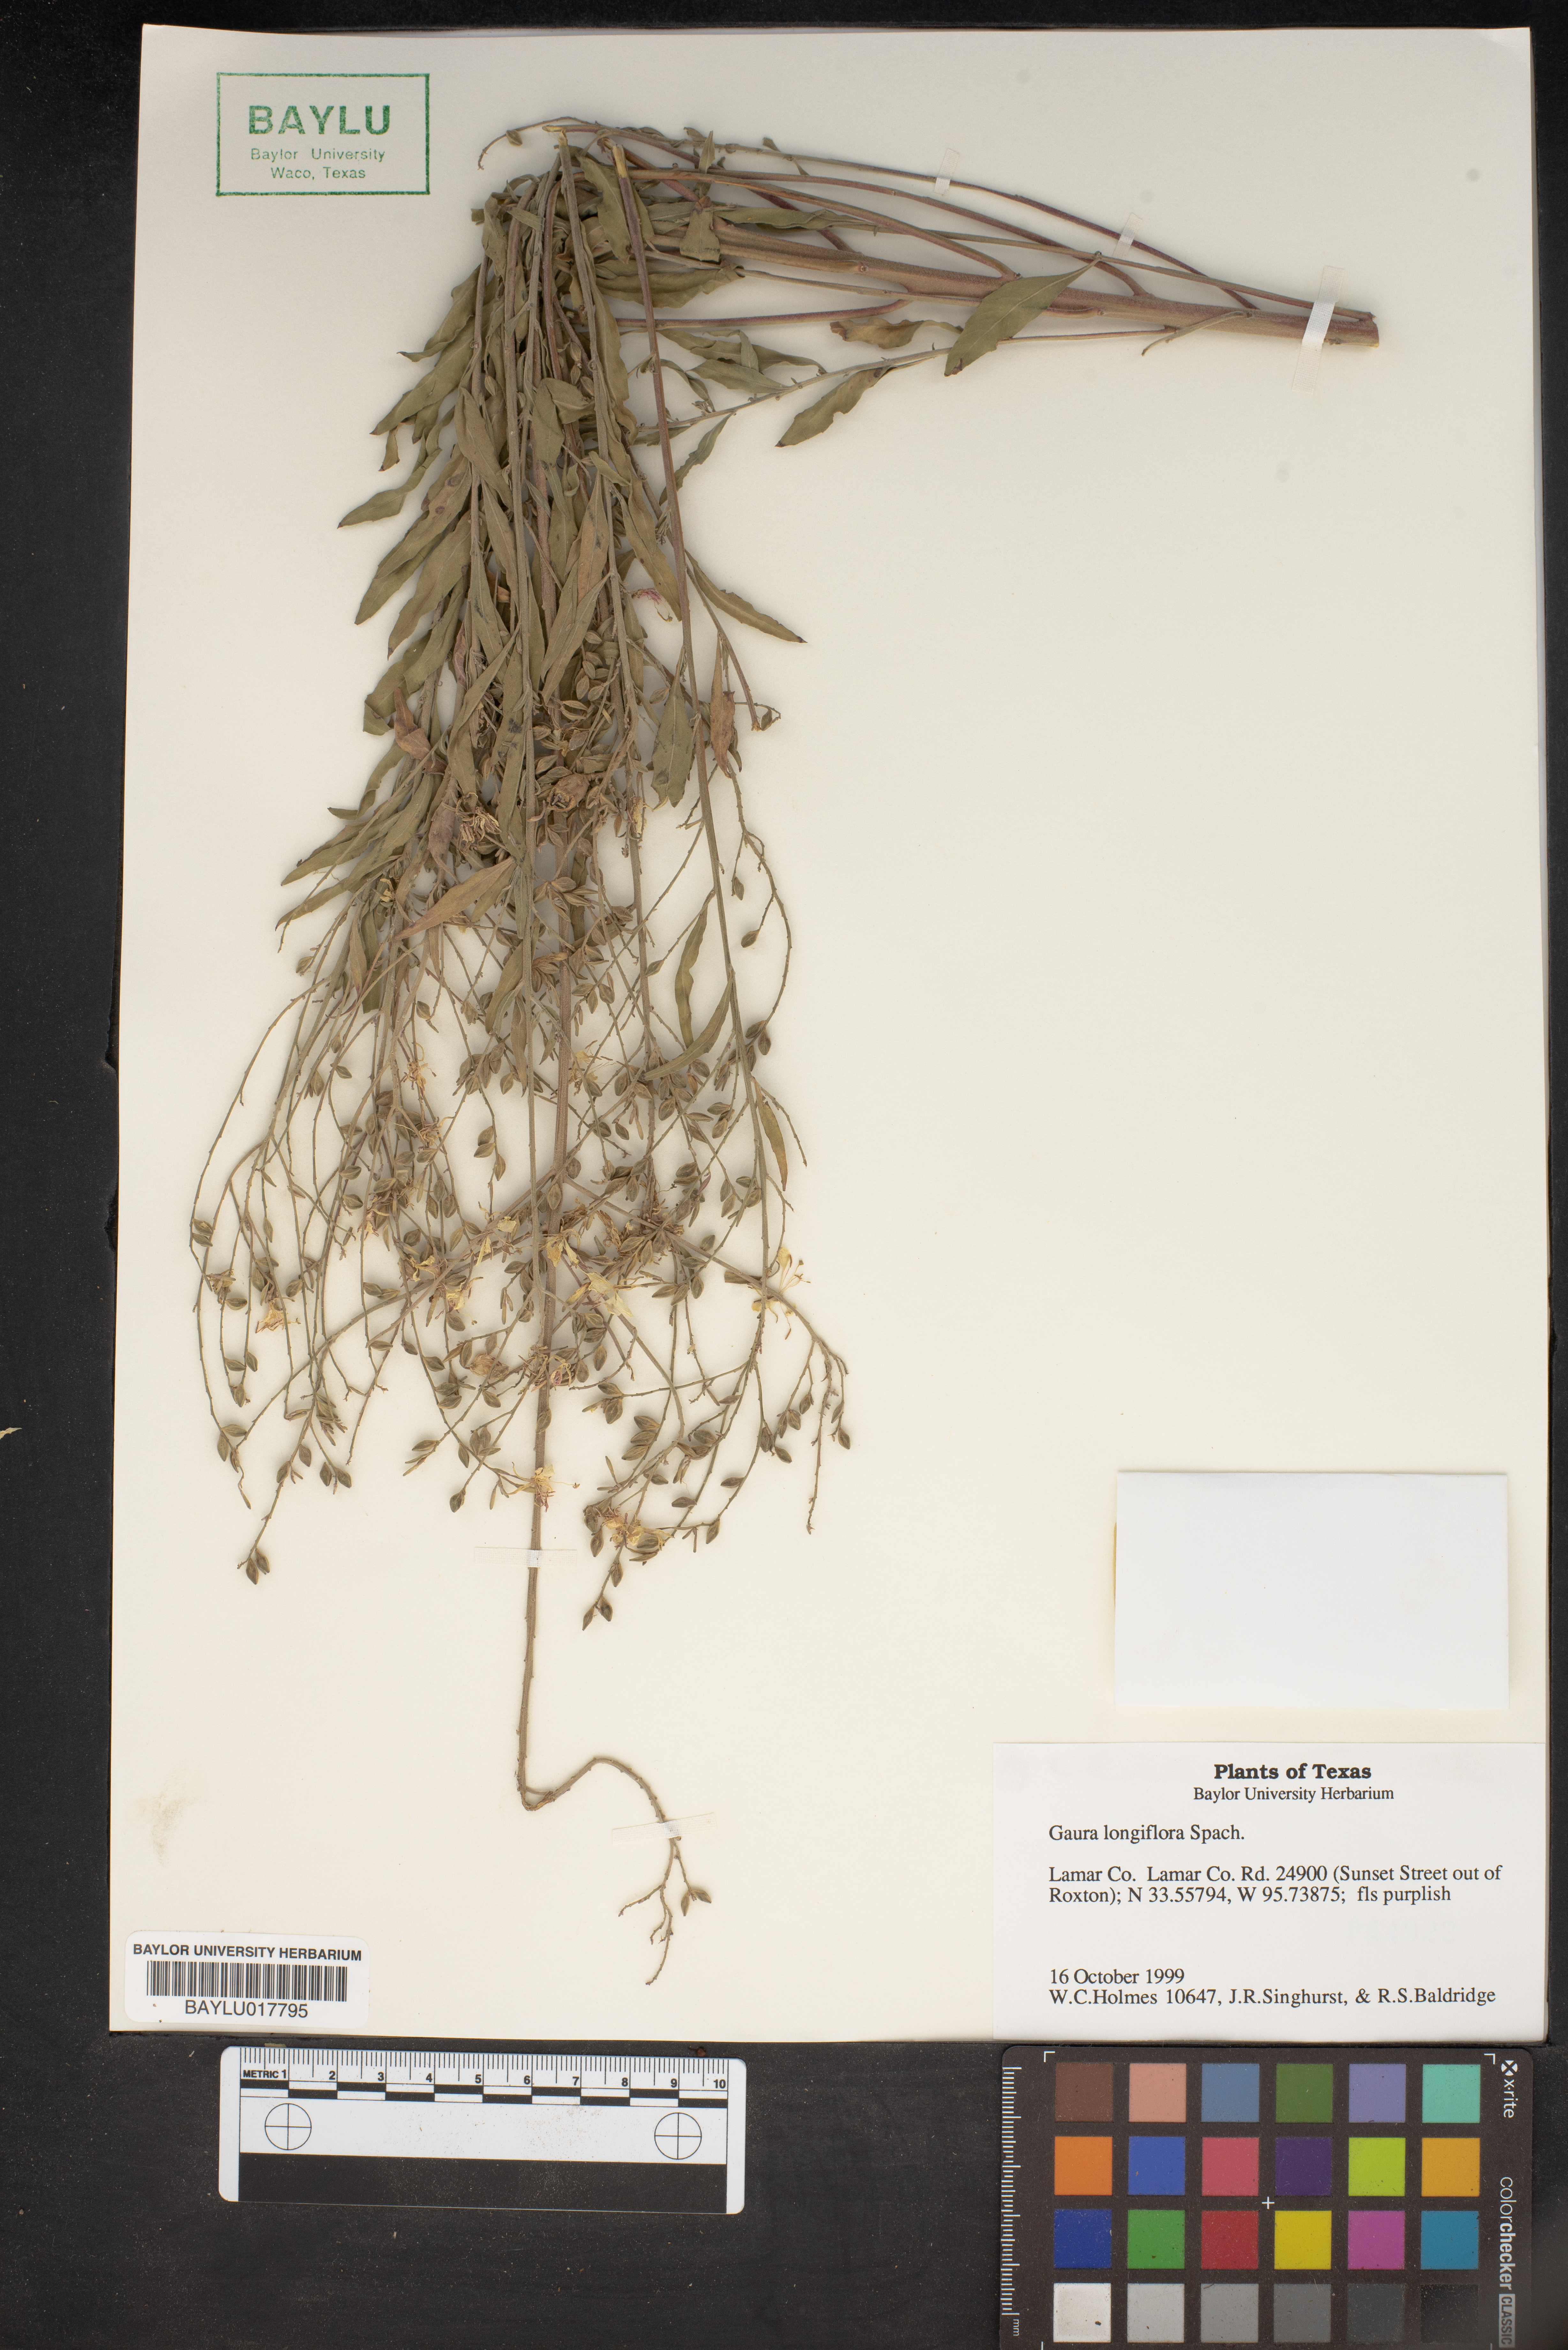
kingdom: Plantae
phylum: Tracheophyta
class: Magnoliopsida
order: Myrtales
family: Onagraceae
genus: Oenothera
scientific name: Oenothera filiformis
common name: Longflower beeblossom
